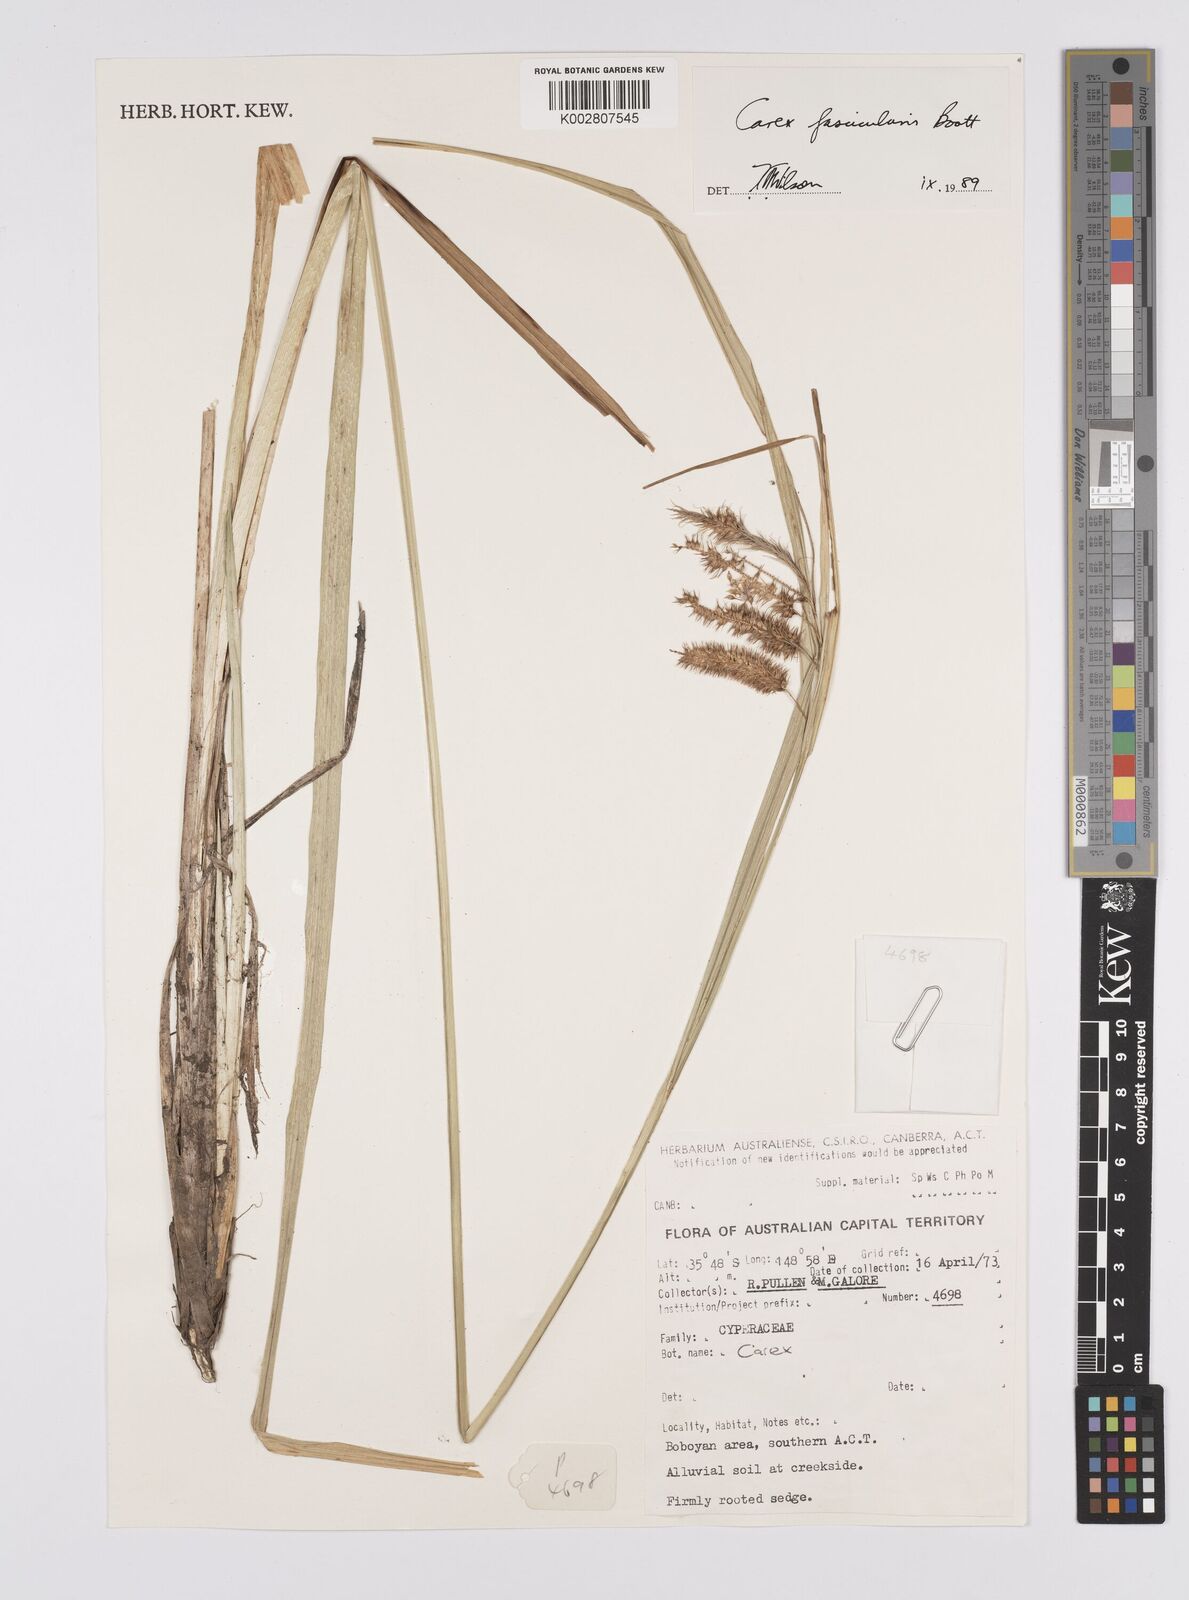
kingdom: Plantae
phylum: Tracheophyta
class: Liliopsida
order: Poales
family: Cyperaceae
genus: Carex
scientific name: Carex fascicularis
